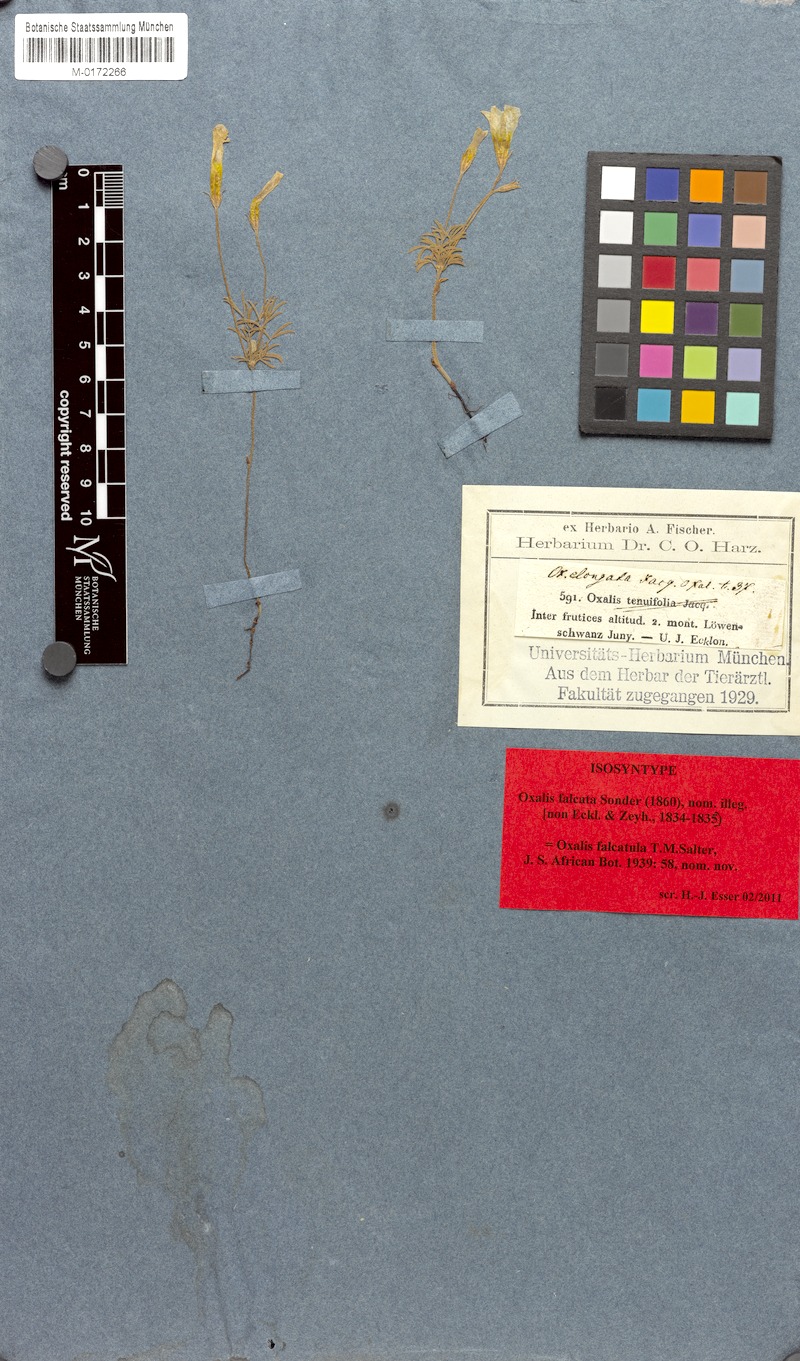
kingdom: Plantae
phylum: Tracheophyta
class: Magnoliopsida
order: Oxalidales
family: Oxalidaceae
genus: Oxalis
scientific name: Oxalis falcatula
